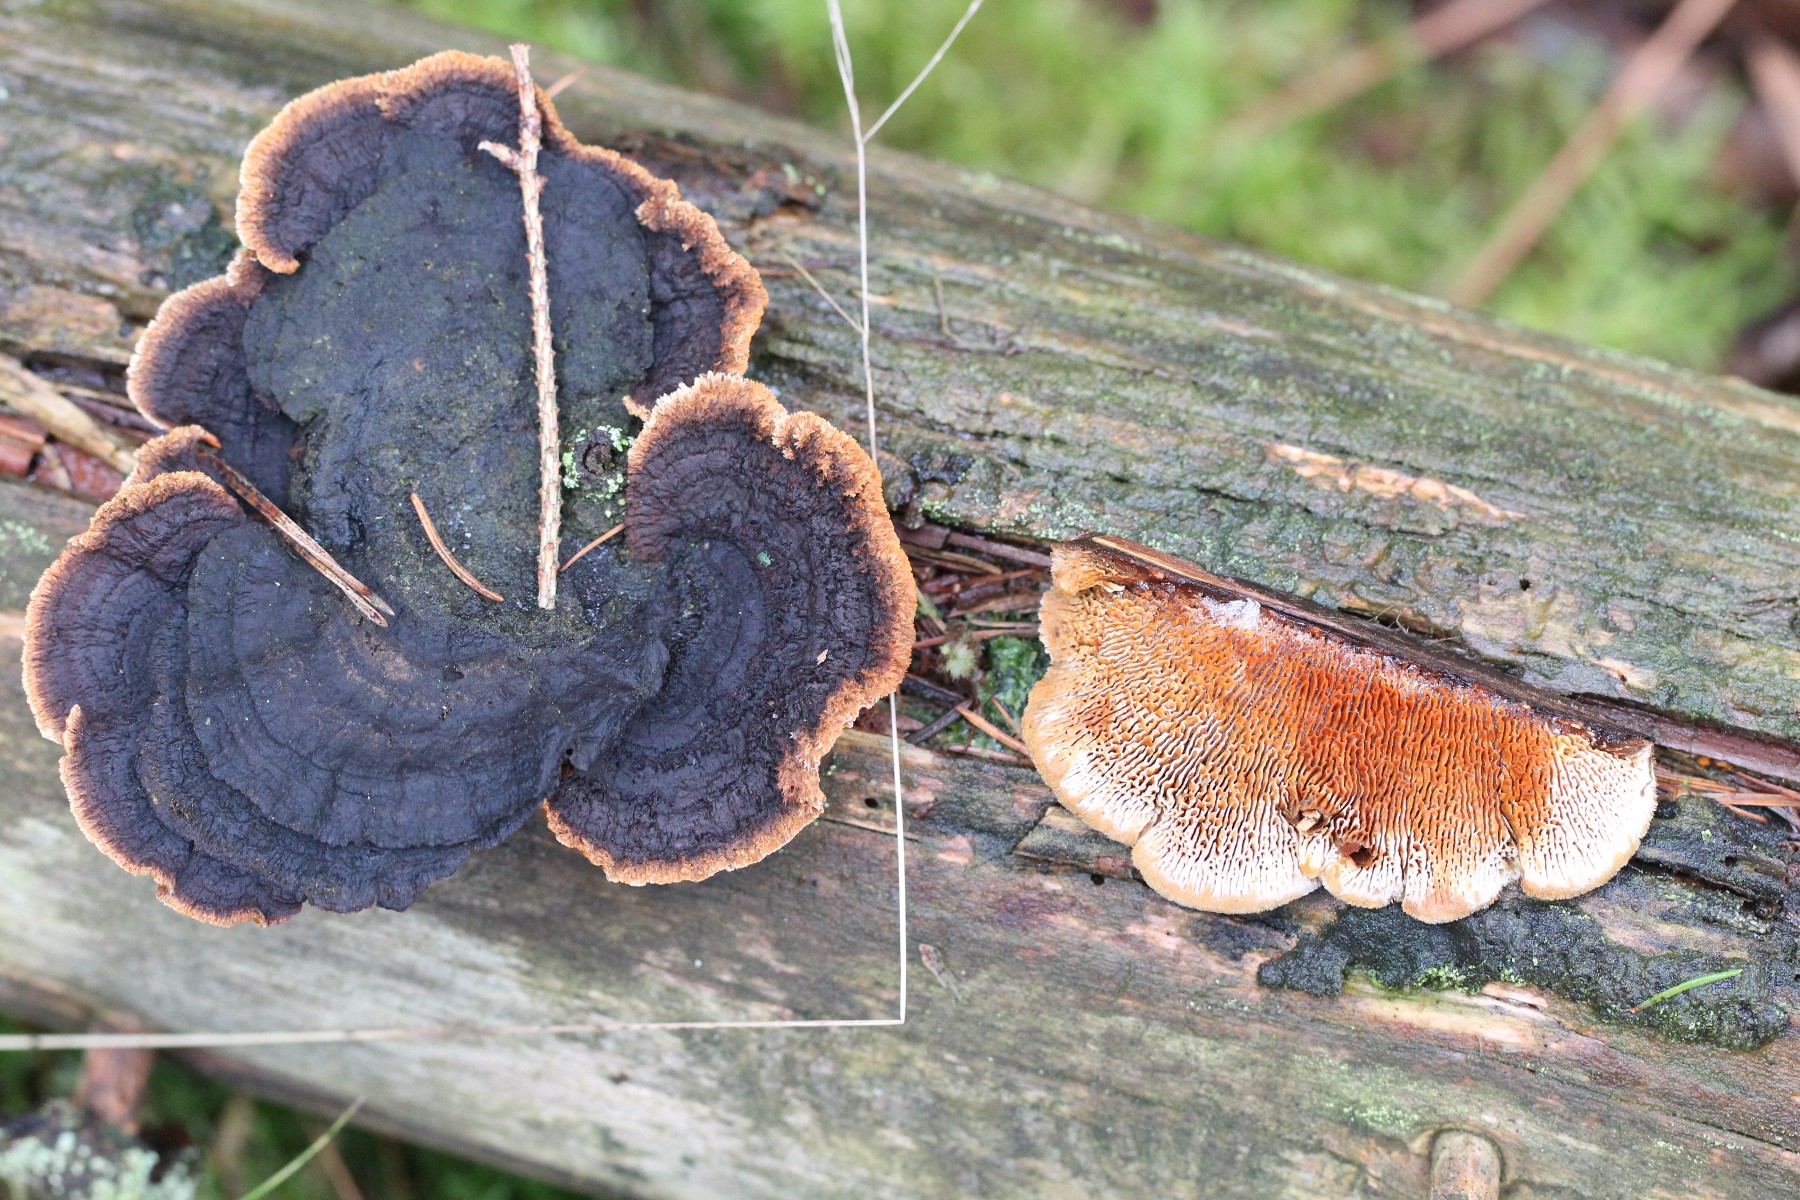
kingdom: Fungi
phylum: Basidiomycota
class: Agaricomycetes
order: Gloeophyllales
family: Gloeophyllaceae
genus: Gloeophyllum
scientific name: Gloeophyllum sepiarium
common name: fyrre-korkhat
